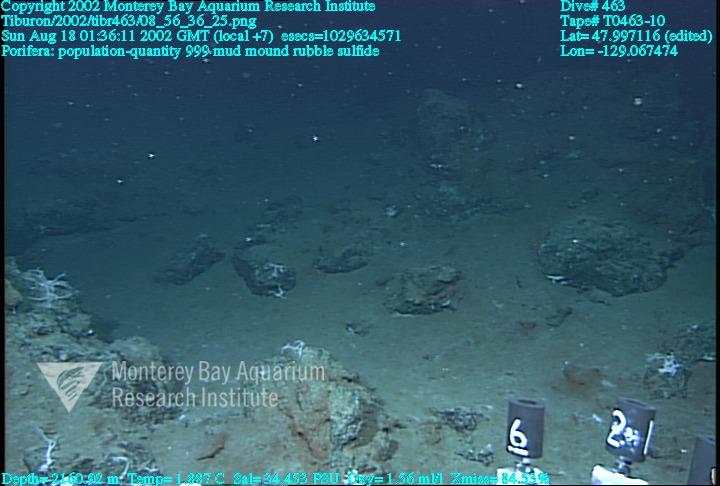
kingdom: Animalia
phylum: Porifera
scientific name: Porifera
